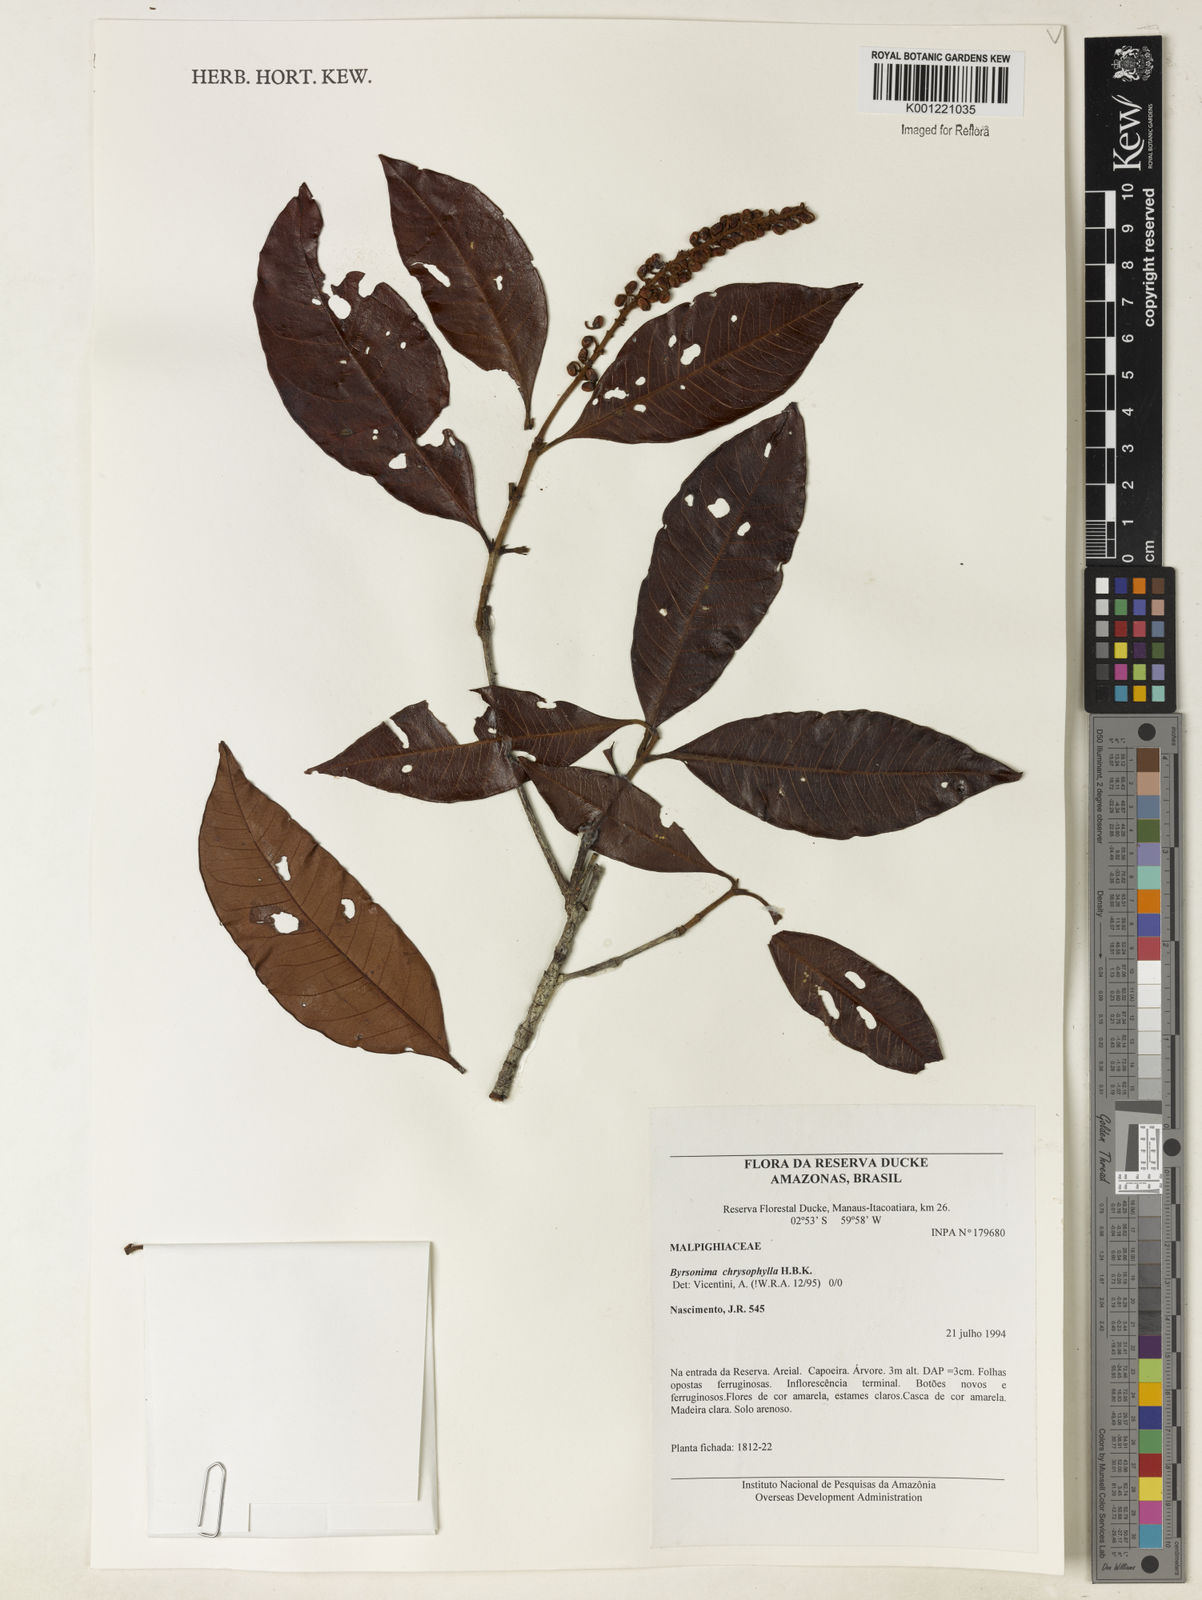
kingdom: Plantae
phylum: Tracheophyta
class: Magnoliopsida
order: Malpighiales
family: Malpighiaceae
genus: Byrsonima
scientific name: Byrsonima chrysophylla
